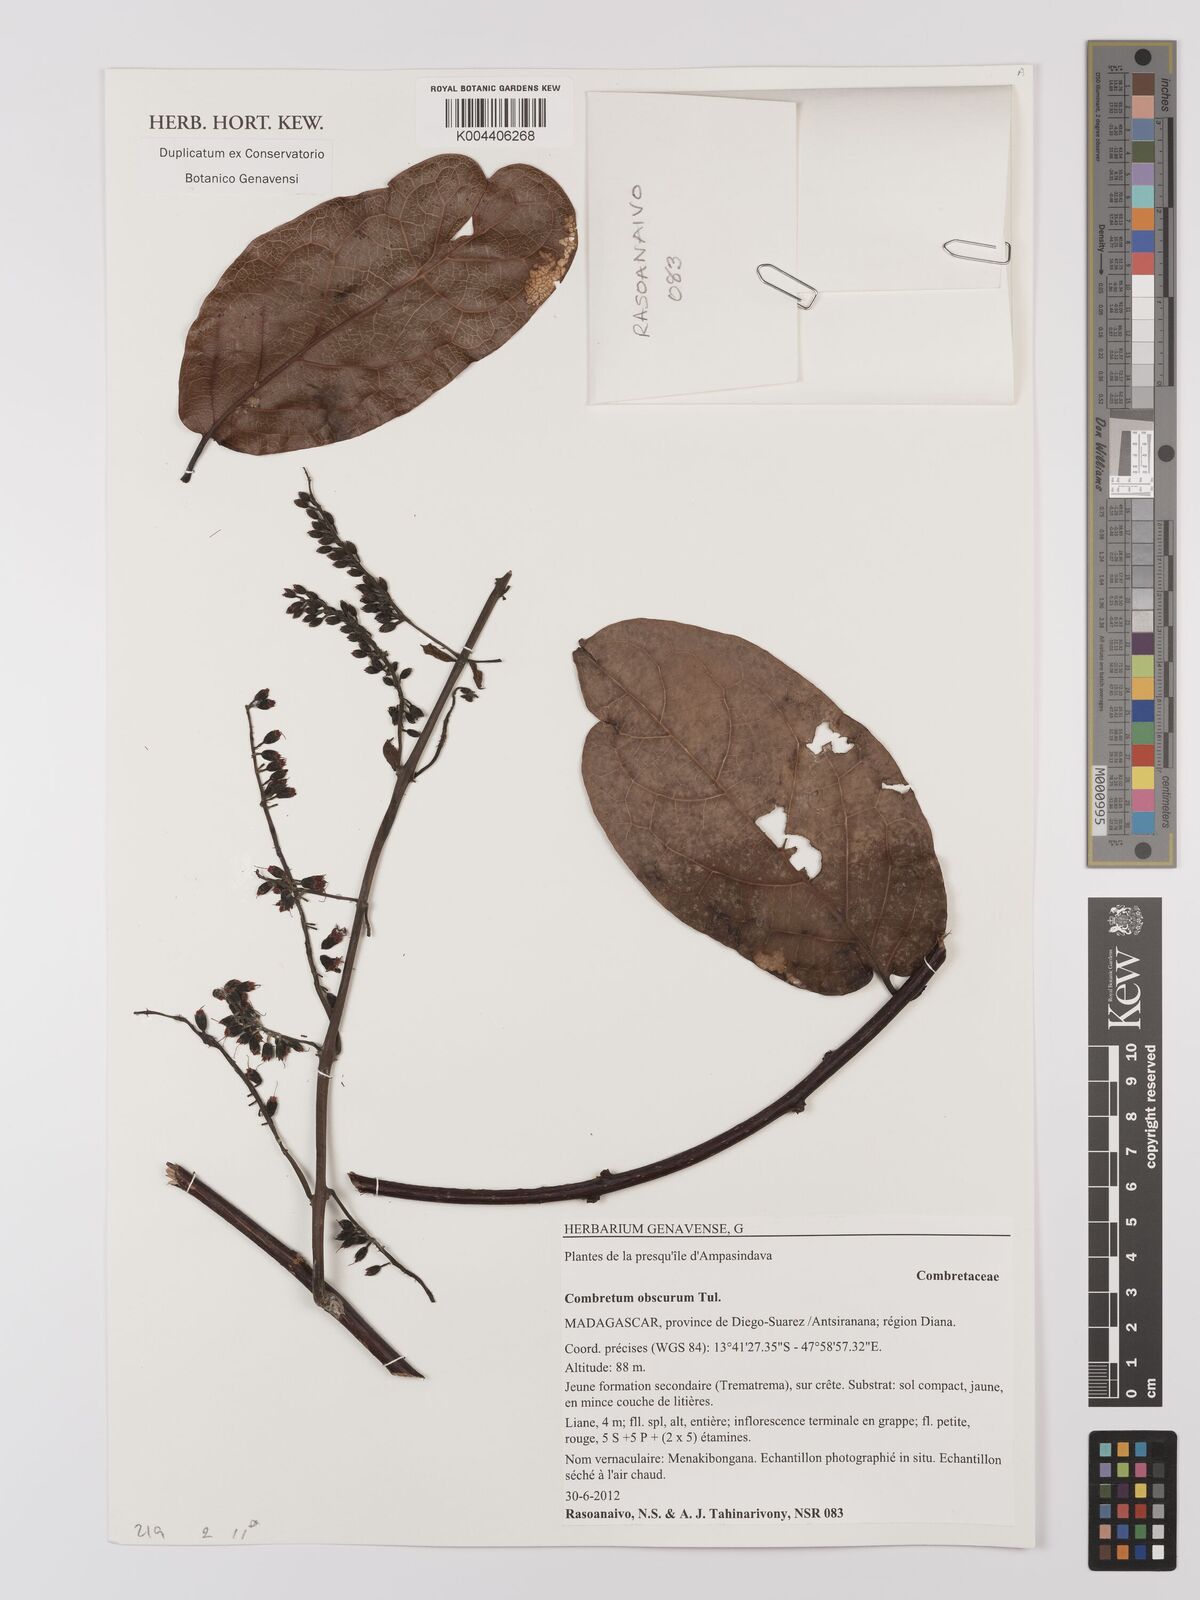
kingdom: Plantae
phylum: Tracheophyta
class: Magnoliopsida
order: Myrtales
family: Combretaceae
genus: Combretum
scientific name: Combretum obscurum
